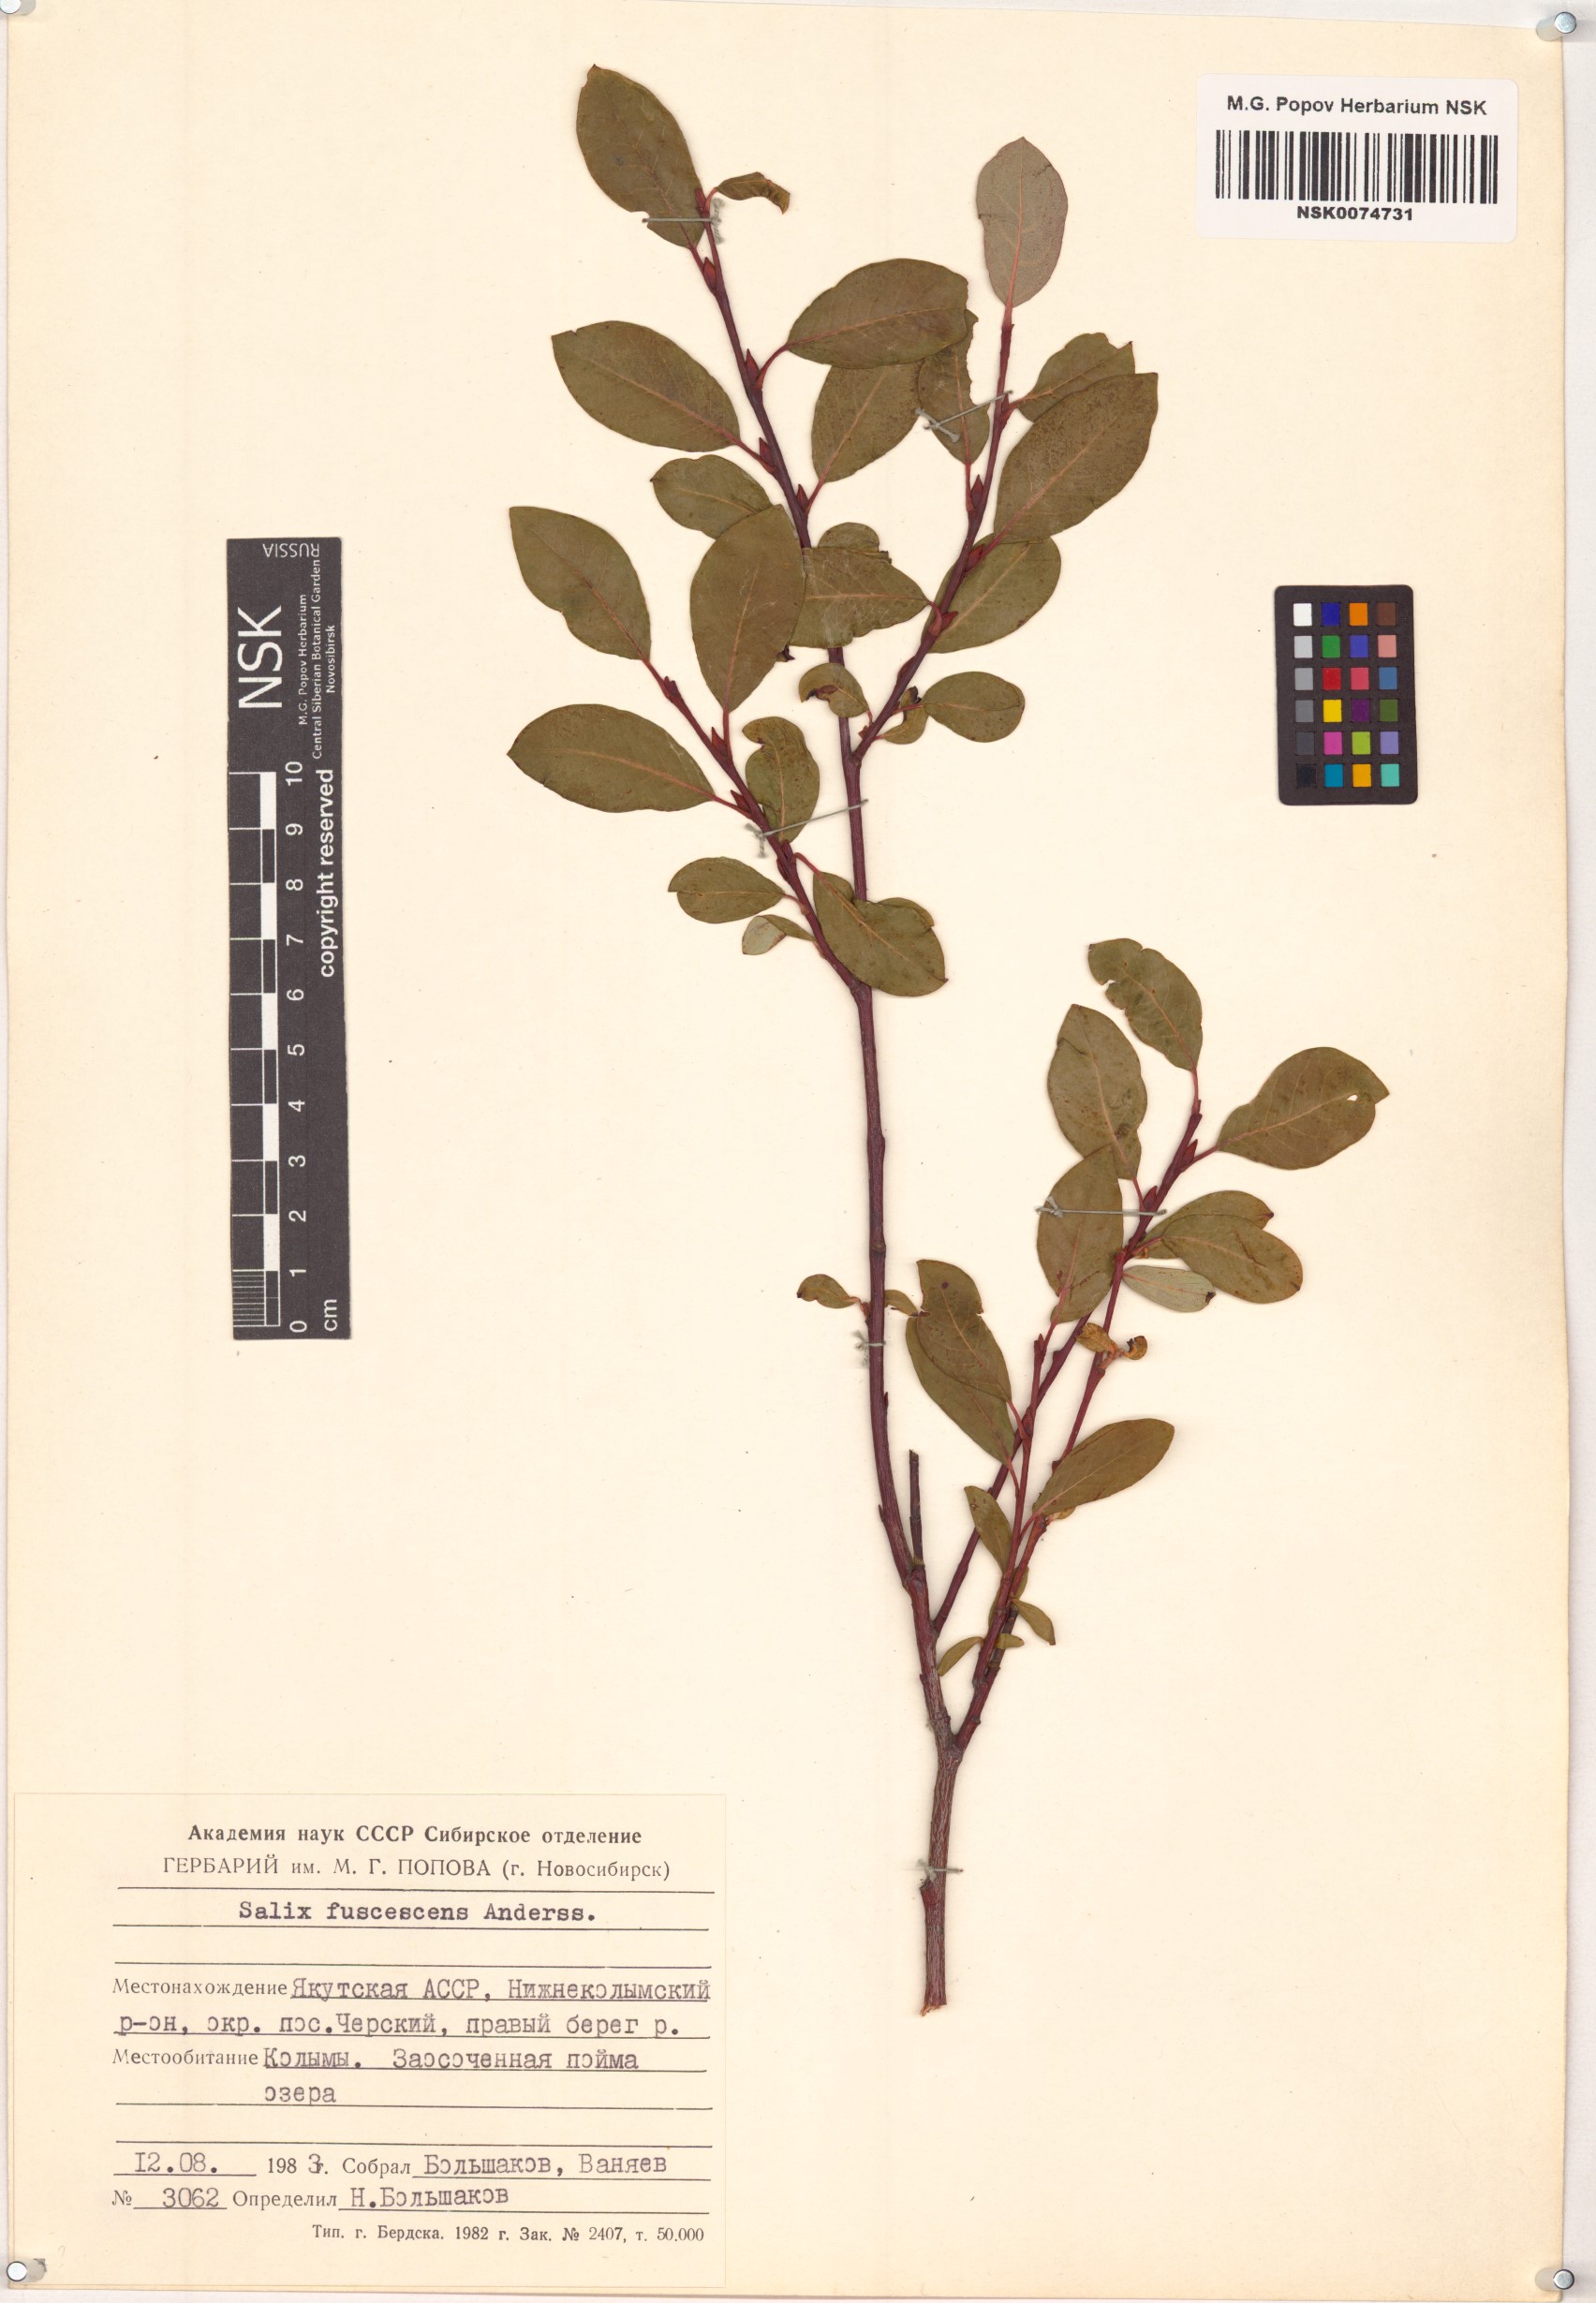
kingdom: Plantae
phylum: Tracheophyta
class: Magnoliopsida
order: Malpighiales
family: Salicaceae
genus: Salix
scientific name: Salix fuscescens
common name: Brownish willow
